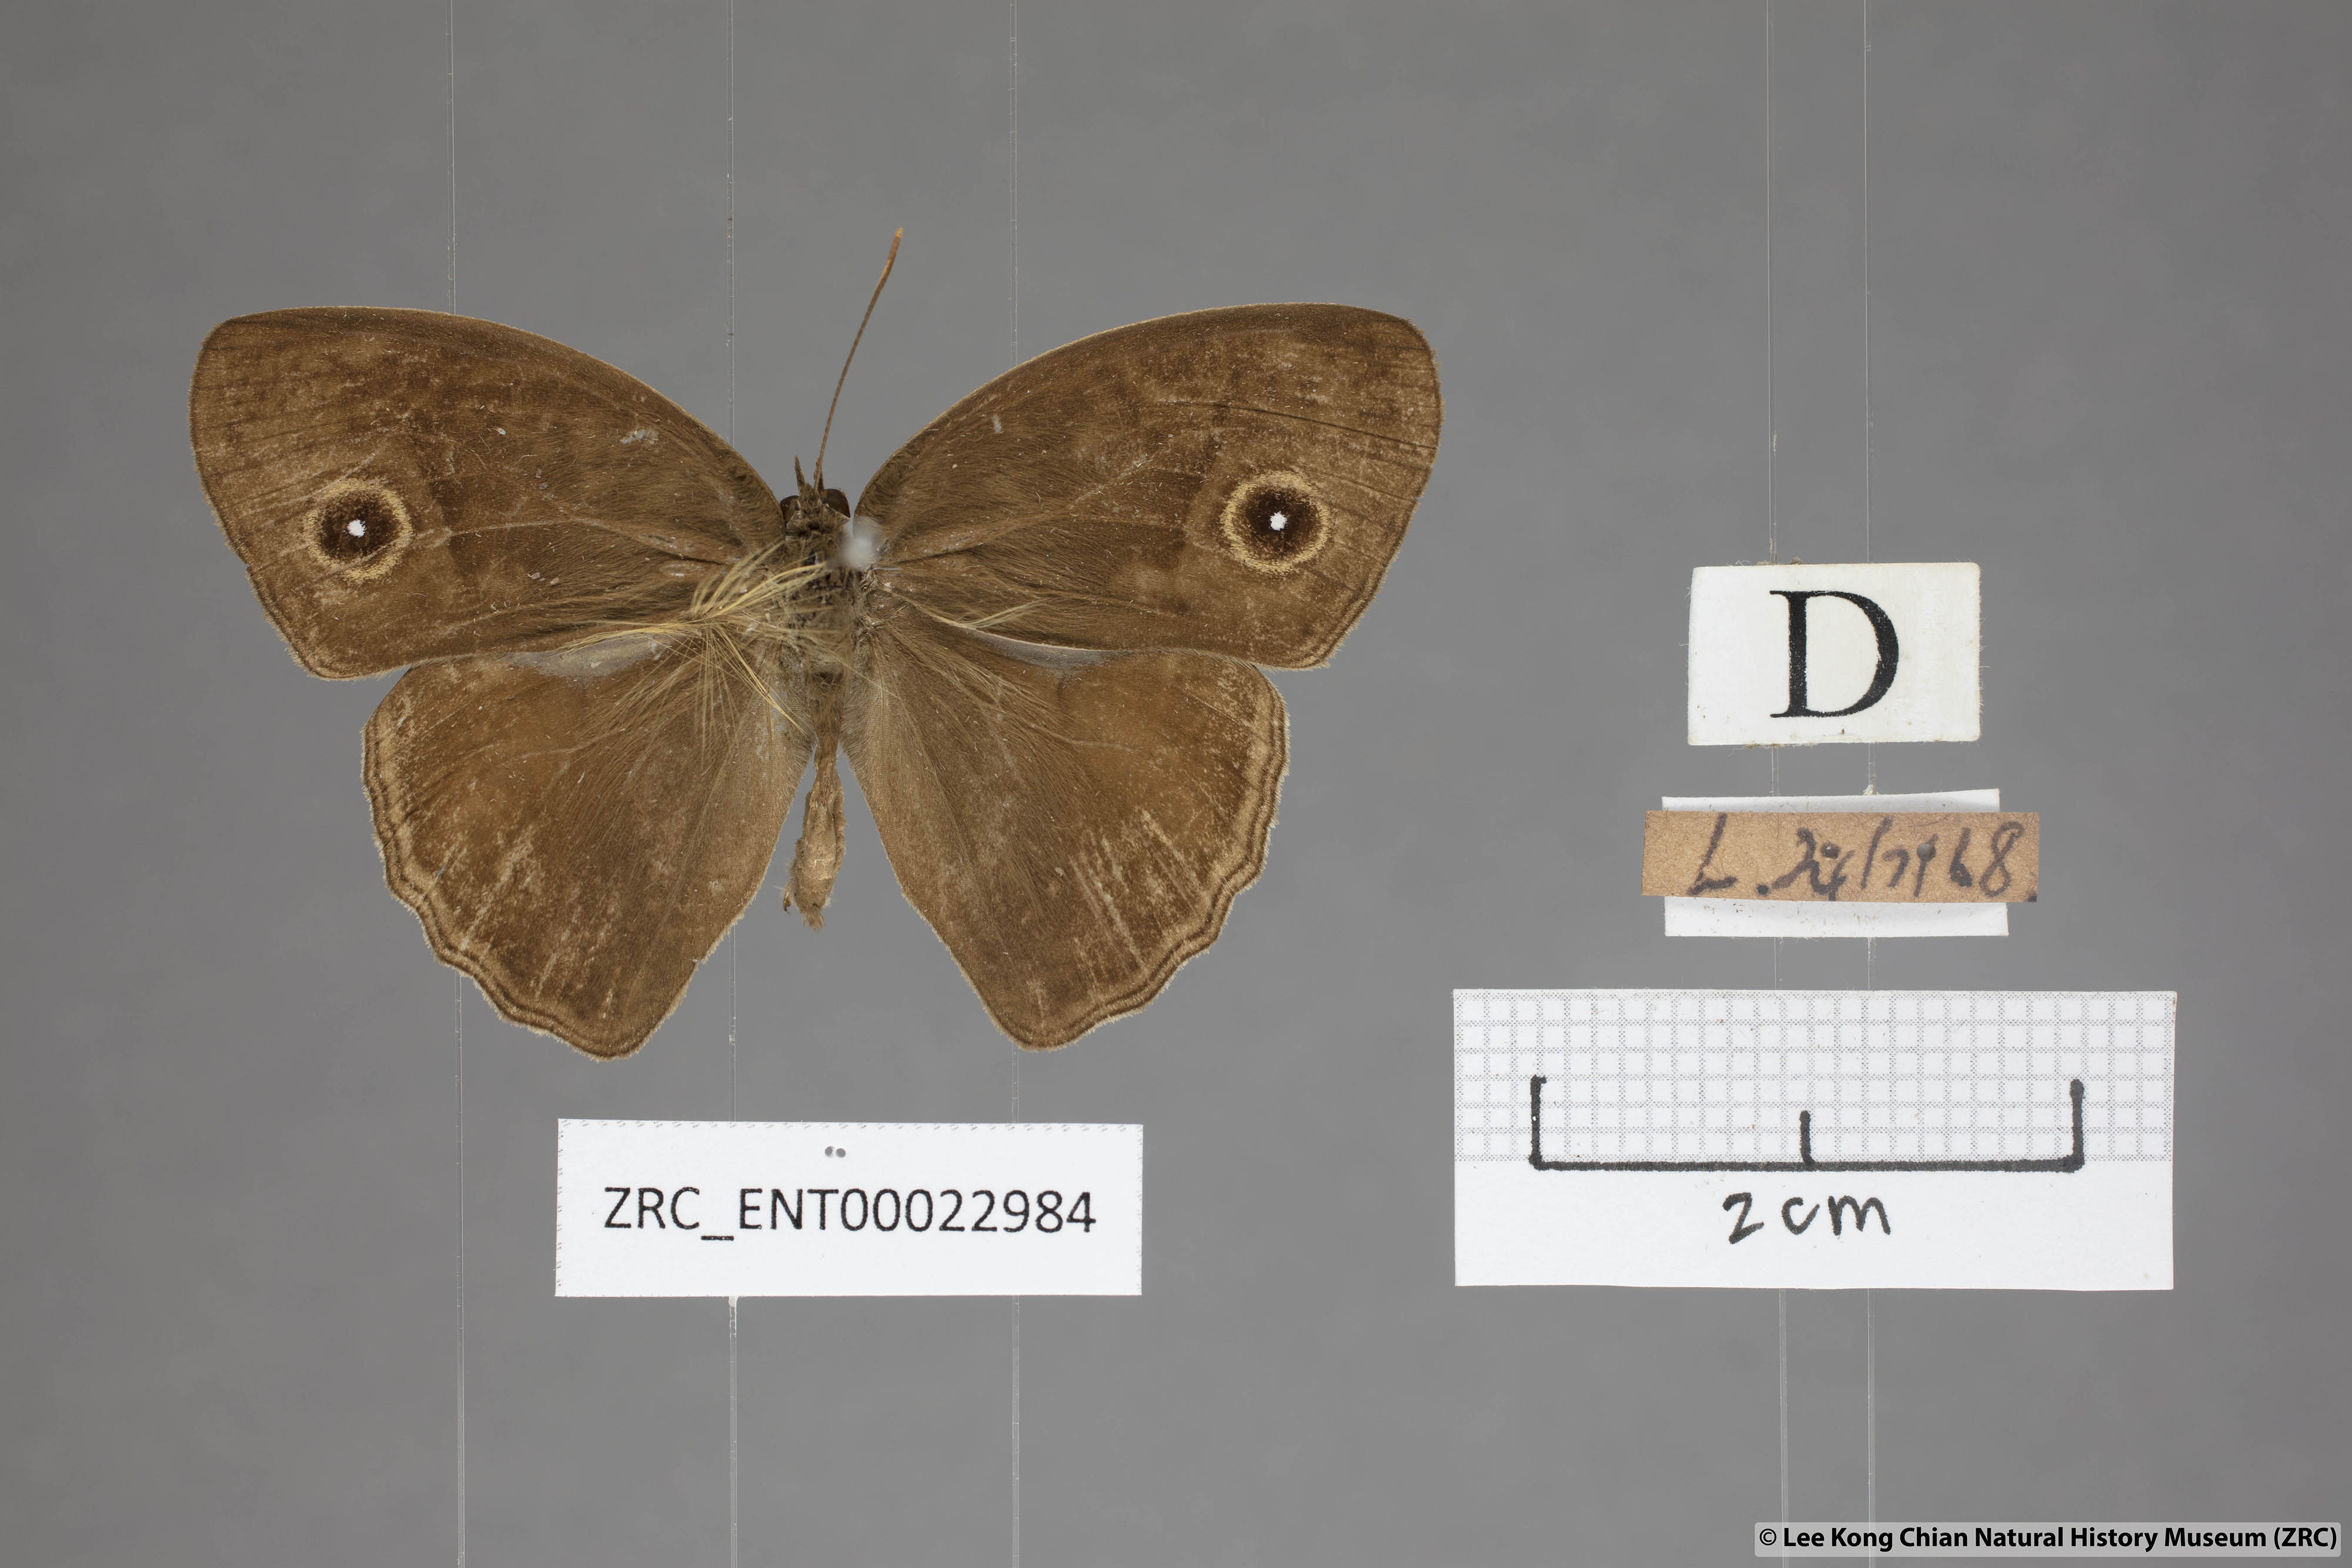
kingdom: Animalia
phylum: Arthropoda
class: Insecta
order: Lepidoptera
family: Nymphalidae
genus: Mycalesis
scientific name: Mycalesis perseoides
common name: Burmese bushbrown
